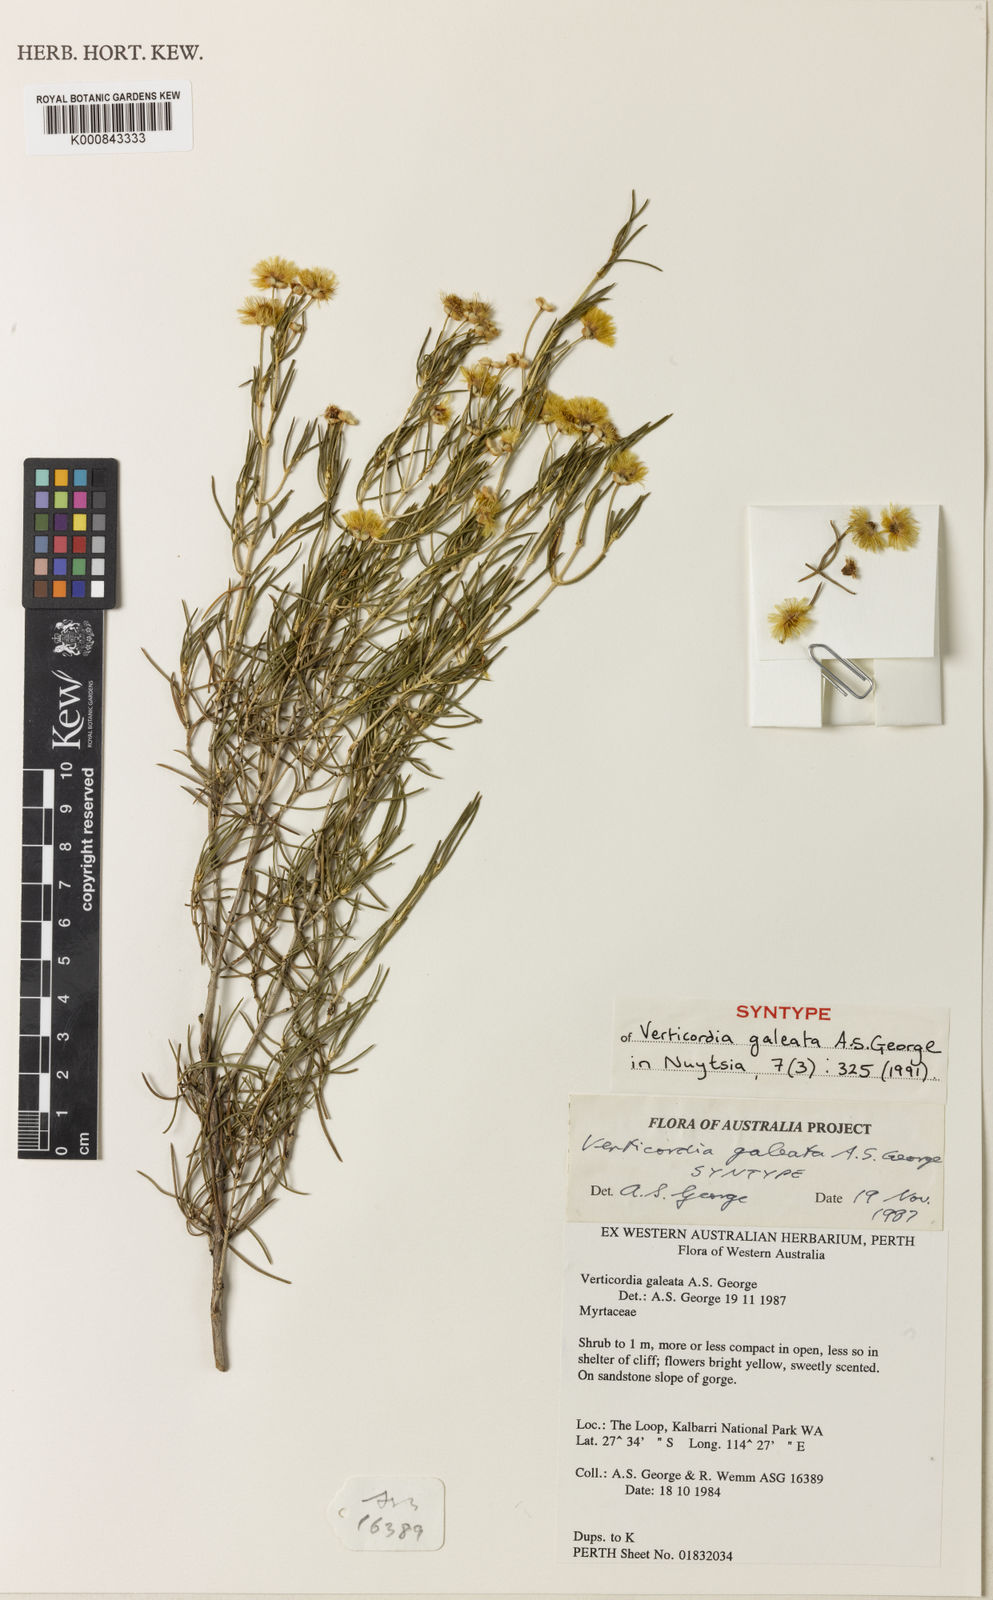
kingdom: Plantae
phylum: Tracheophyta
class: Magnoliopsida
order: Myrtales
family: Myrtaceae
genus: Verticordia
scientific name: Verticordia galeata
